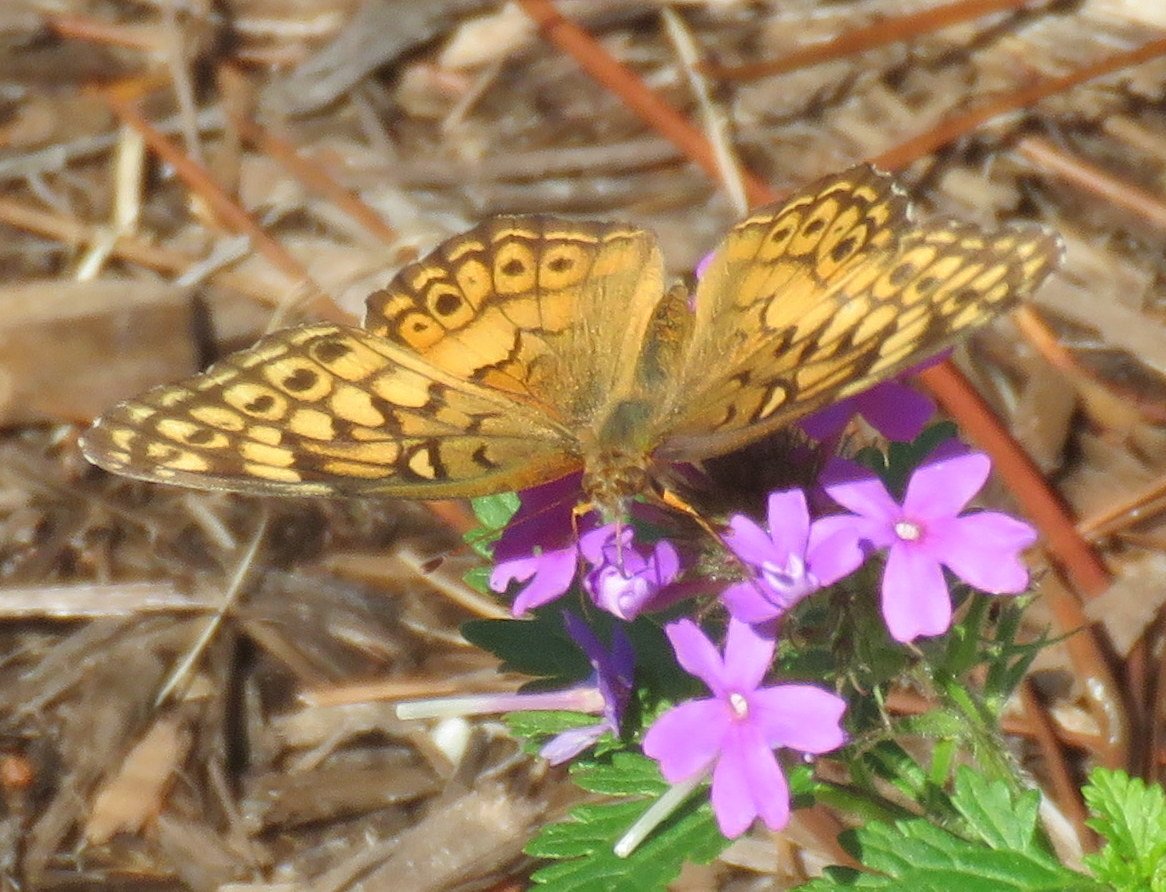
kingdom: Animalia
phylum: Arthropoda
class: Insecta
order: Lepidoptera
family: Nymphalidae
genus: Euptoieta
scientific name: Euptoieta claudia
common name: Variegated Fritillary
